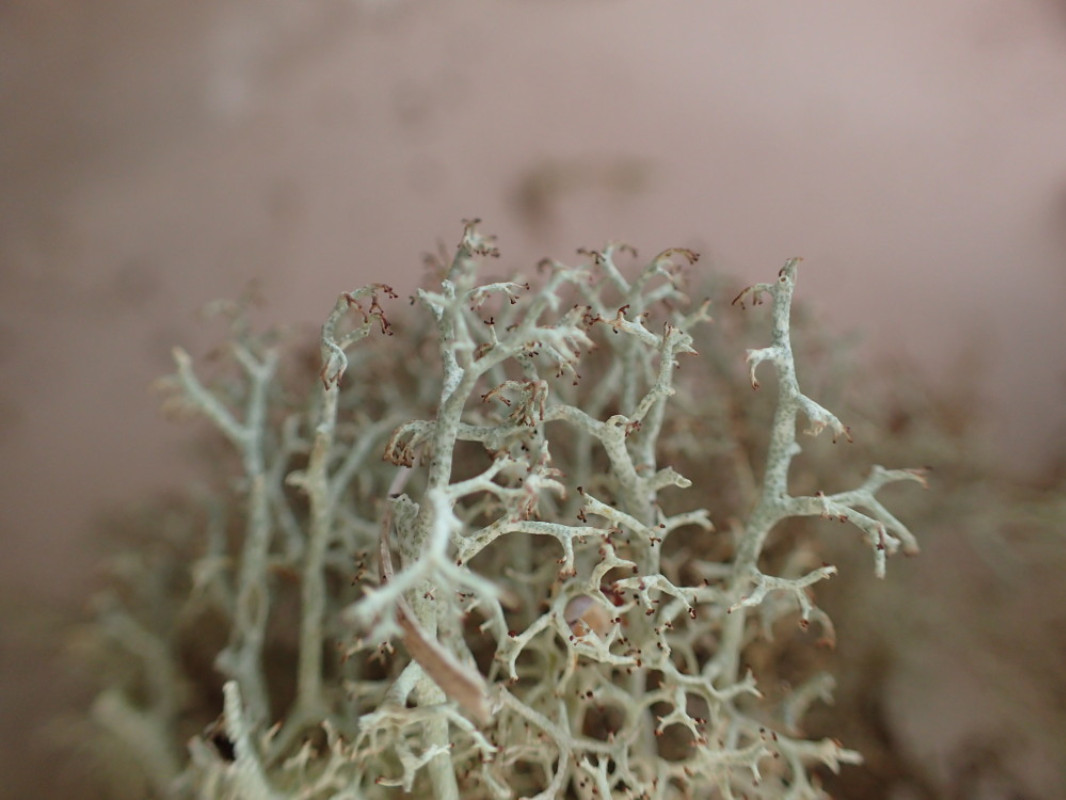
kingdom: Fungi
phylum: Ascomycota
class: Lecanoromycetes
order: Lecanorales
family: Cladoniaceae
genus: Cladonia
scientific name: Cladonia ciliata
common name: spinkel rensdyrlav
